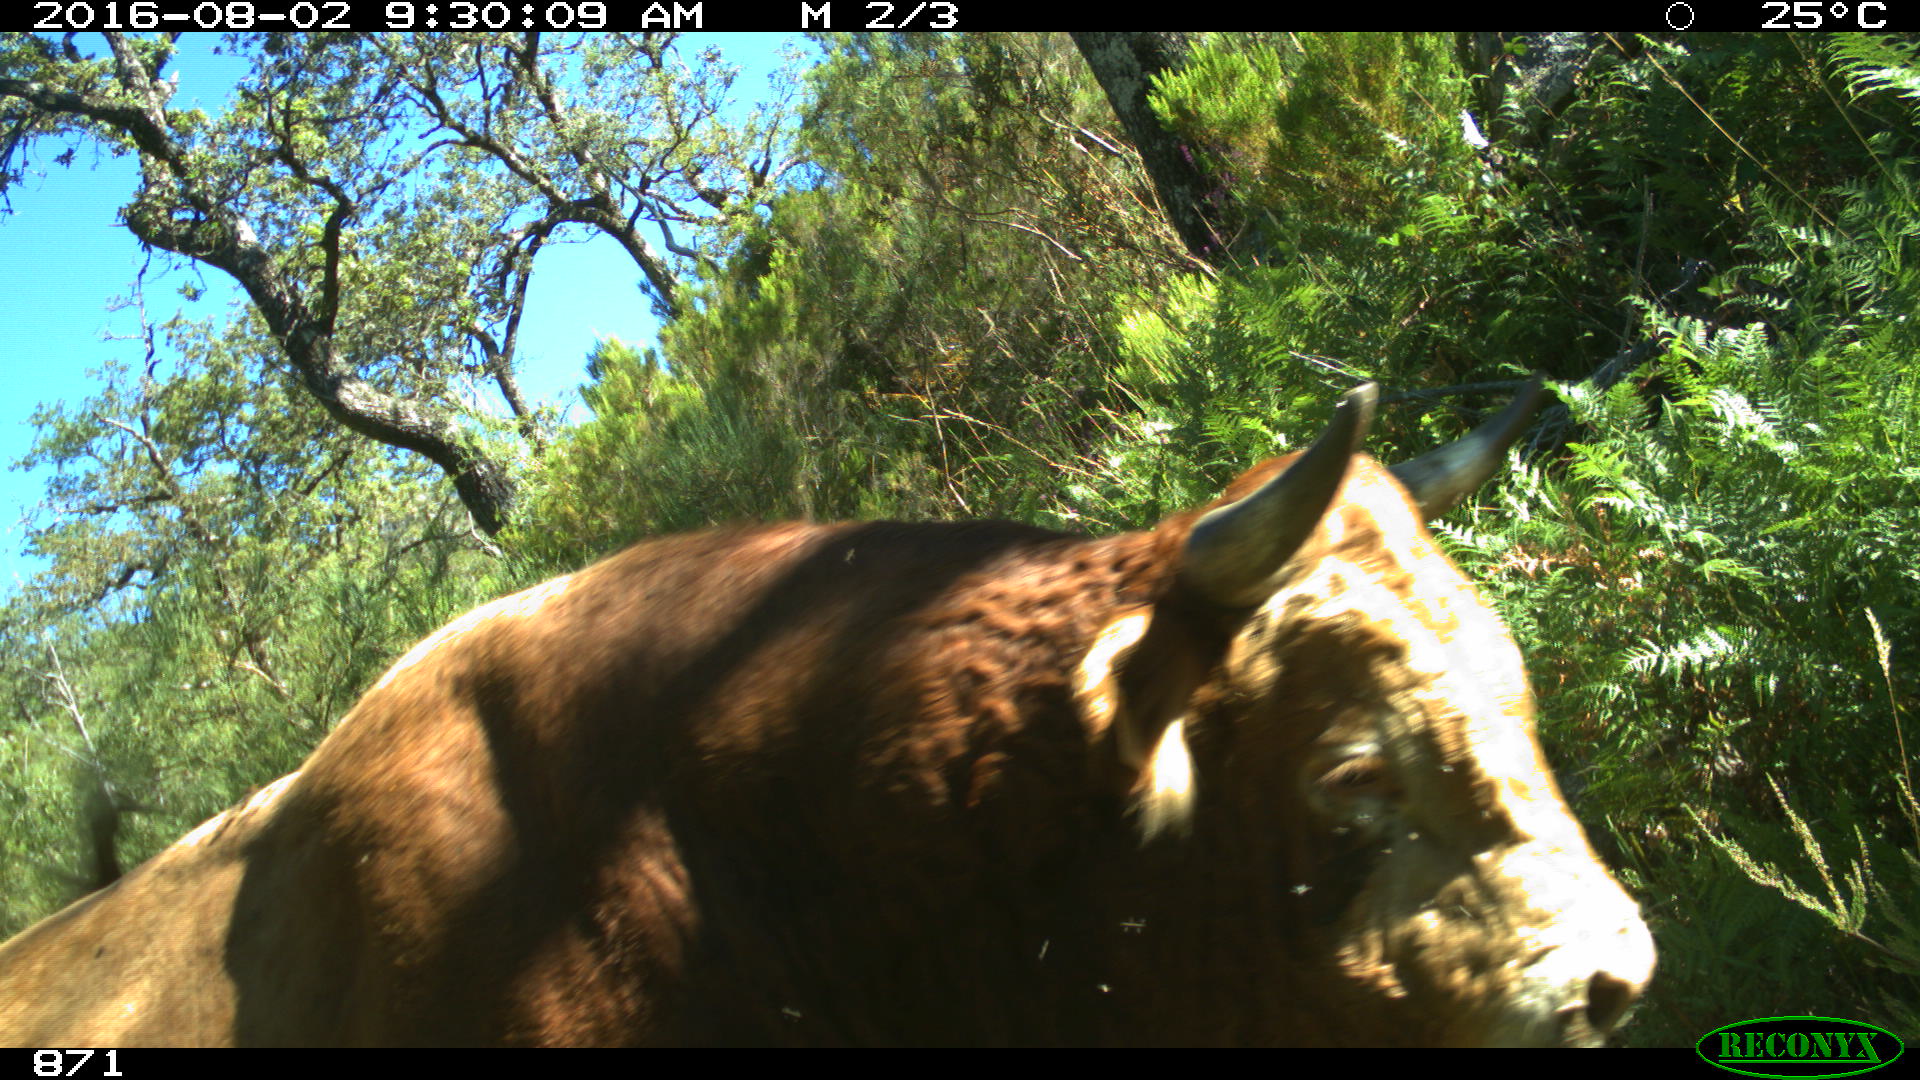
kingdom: Animalia
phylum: Chordata
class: Mammalia
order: Artiodactyla
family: Bovidae
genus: Bos
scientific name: Bos taurus
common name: Domesticated cattle
